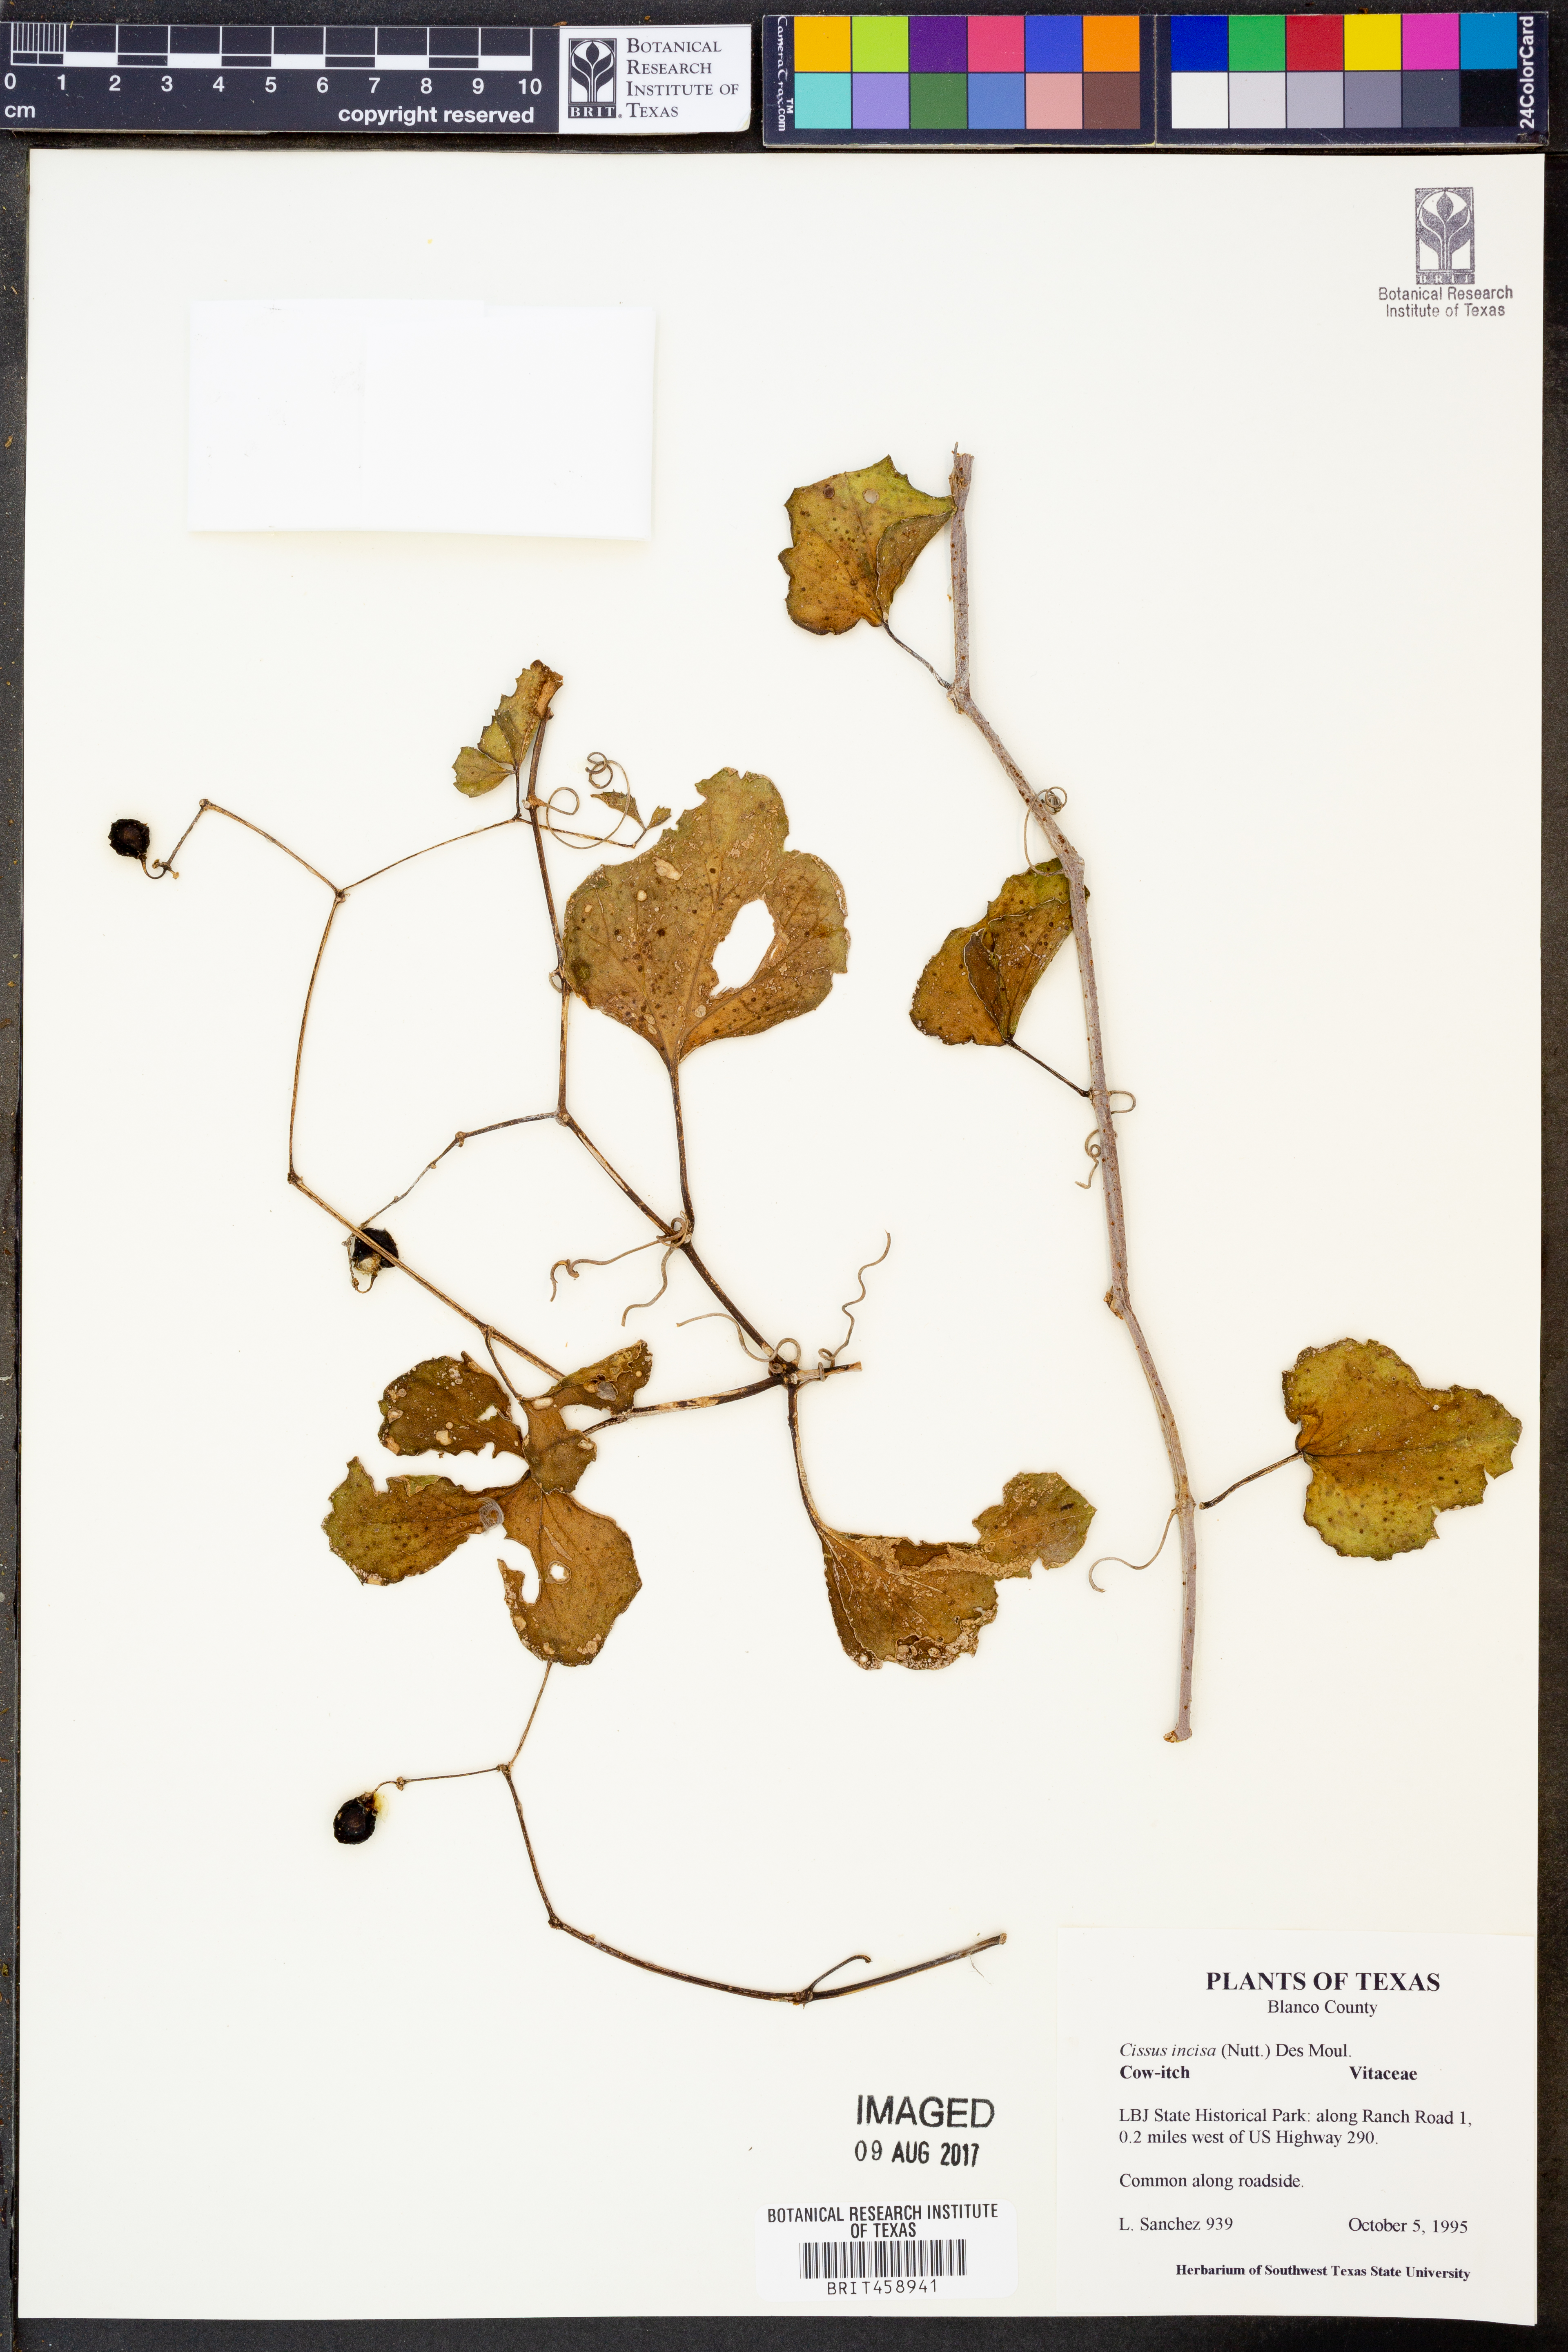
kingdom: Plantae
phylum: Tracheophyta
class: Magnoliopsida
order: Vitales
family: Vitaceae
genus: Cissus
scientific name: Cissus trifoliata
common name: Vine-sorrel
